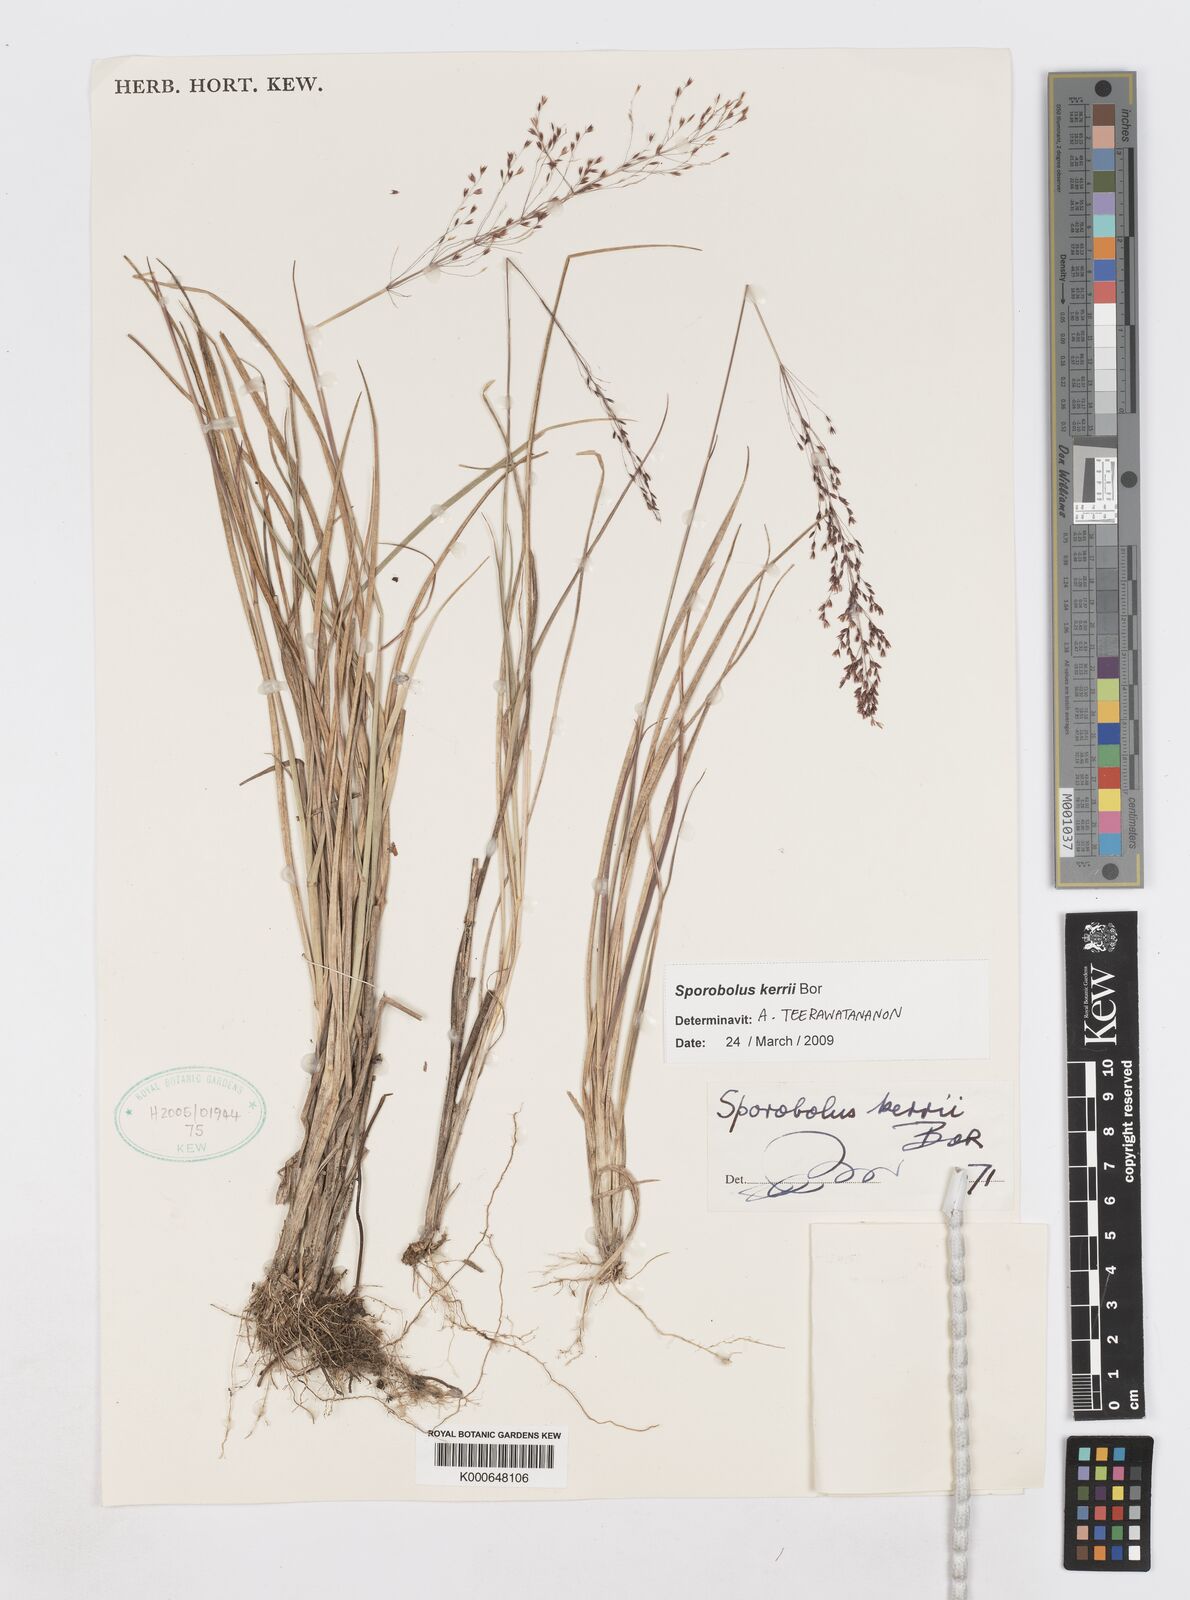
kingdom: Plantae
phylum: Tracheophyta
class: Liliopsida
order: Poales
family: Poaceae
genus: Sporobolus
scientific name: Sporobolus kerrii
